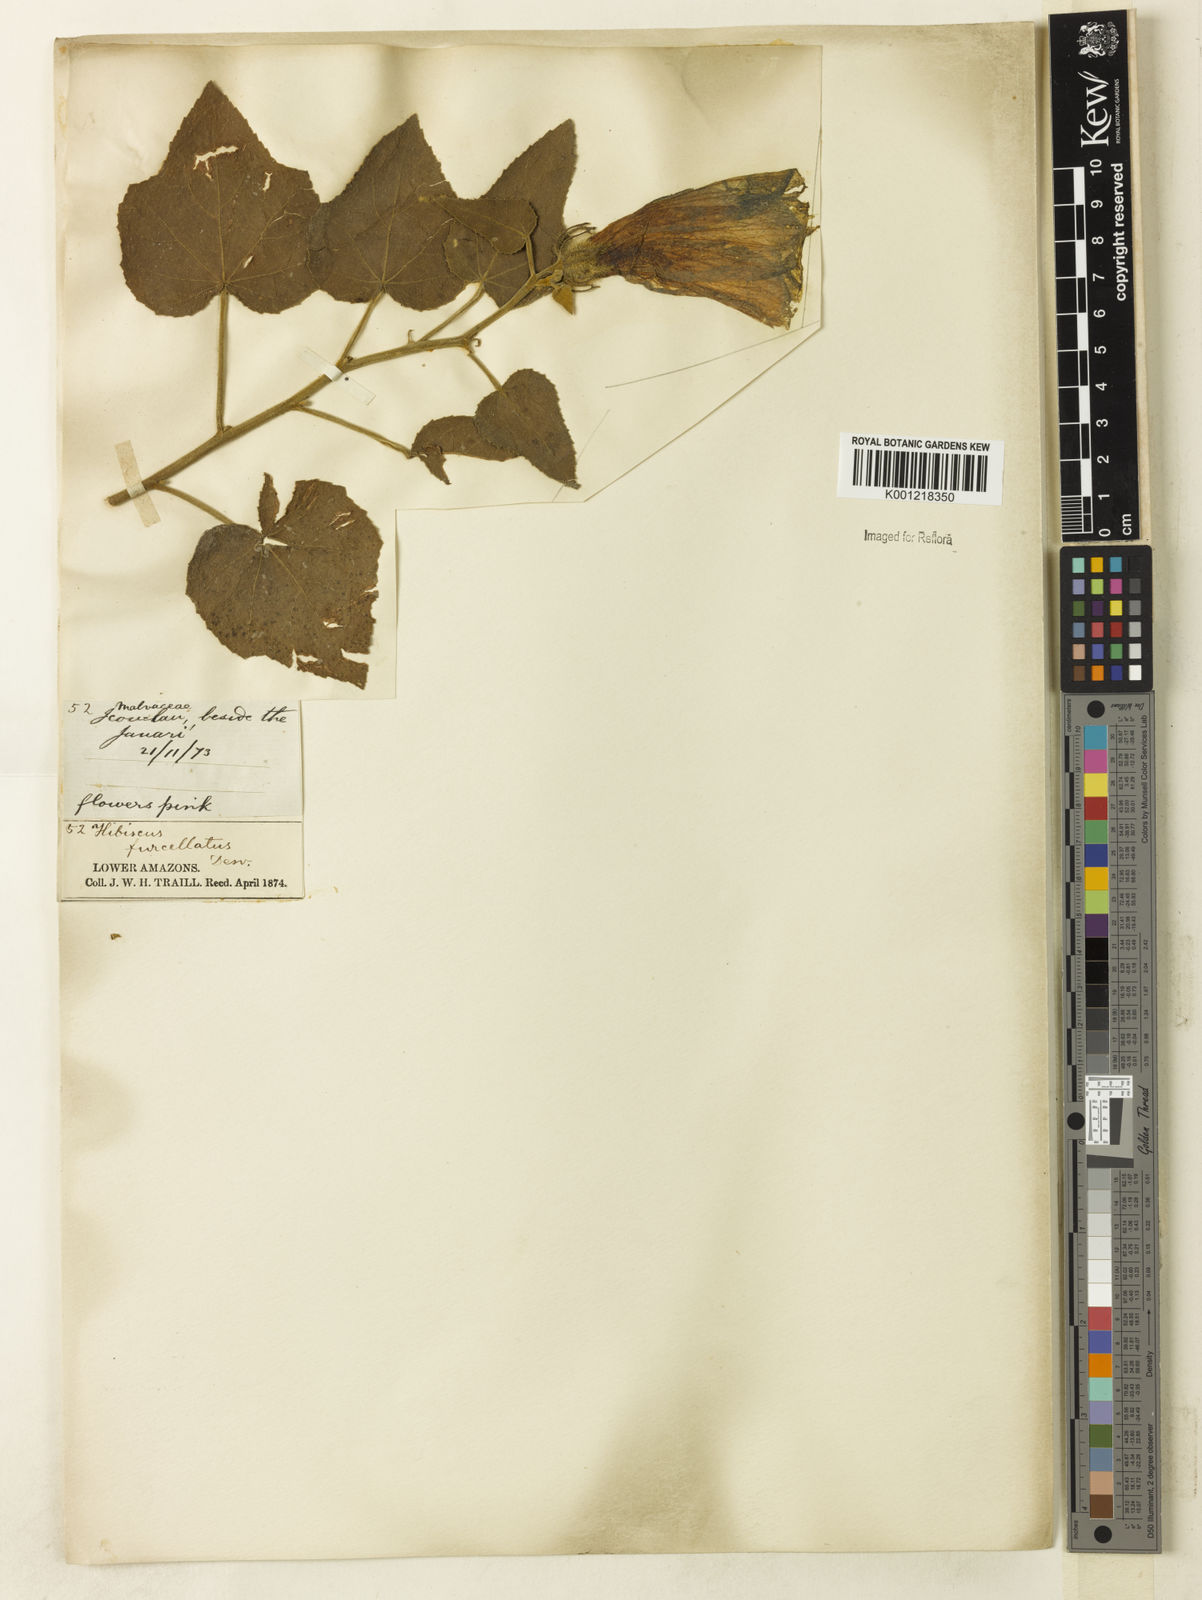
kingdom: Plantae
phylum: Tracheophyta
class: Magnoliopsida
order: Malvales
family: Malvaceae
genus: Hibiscus
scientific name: Hibiscus furcellatus
